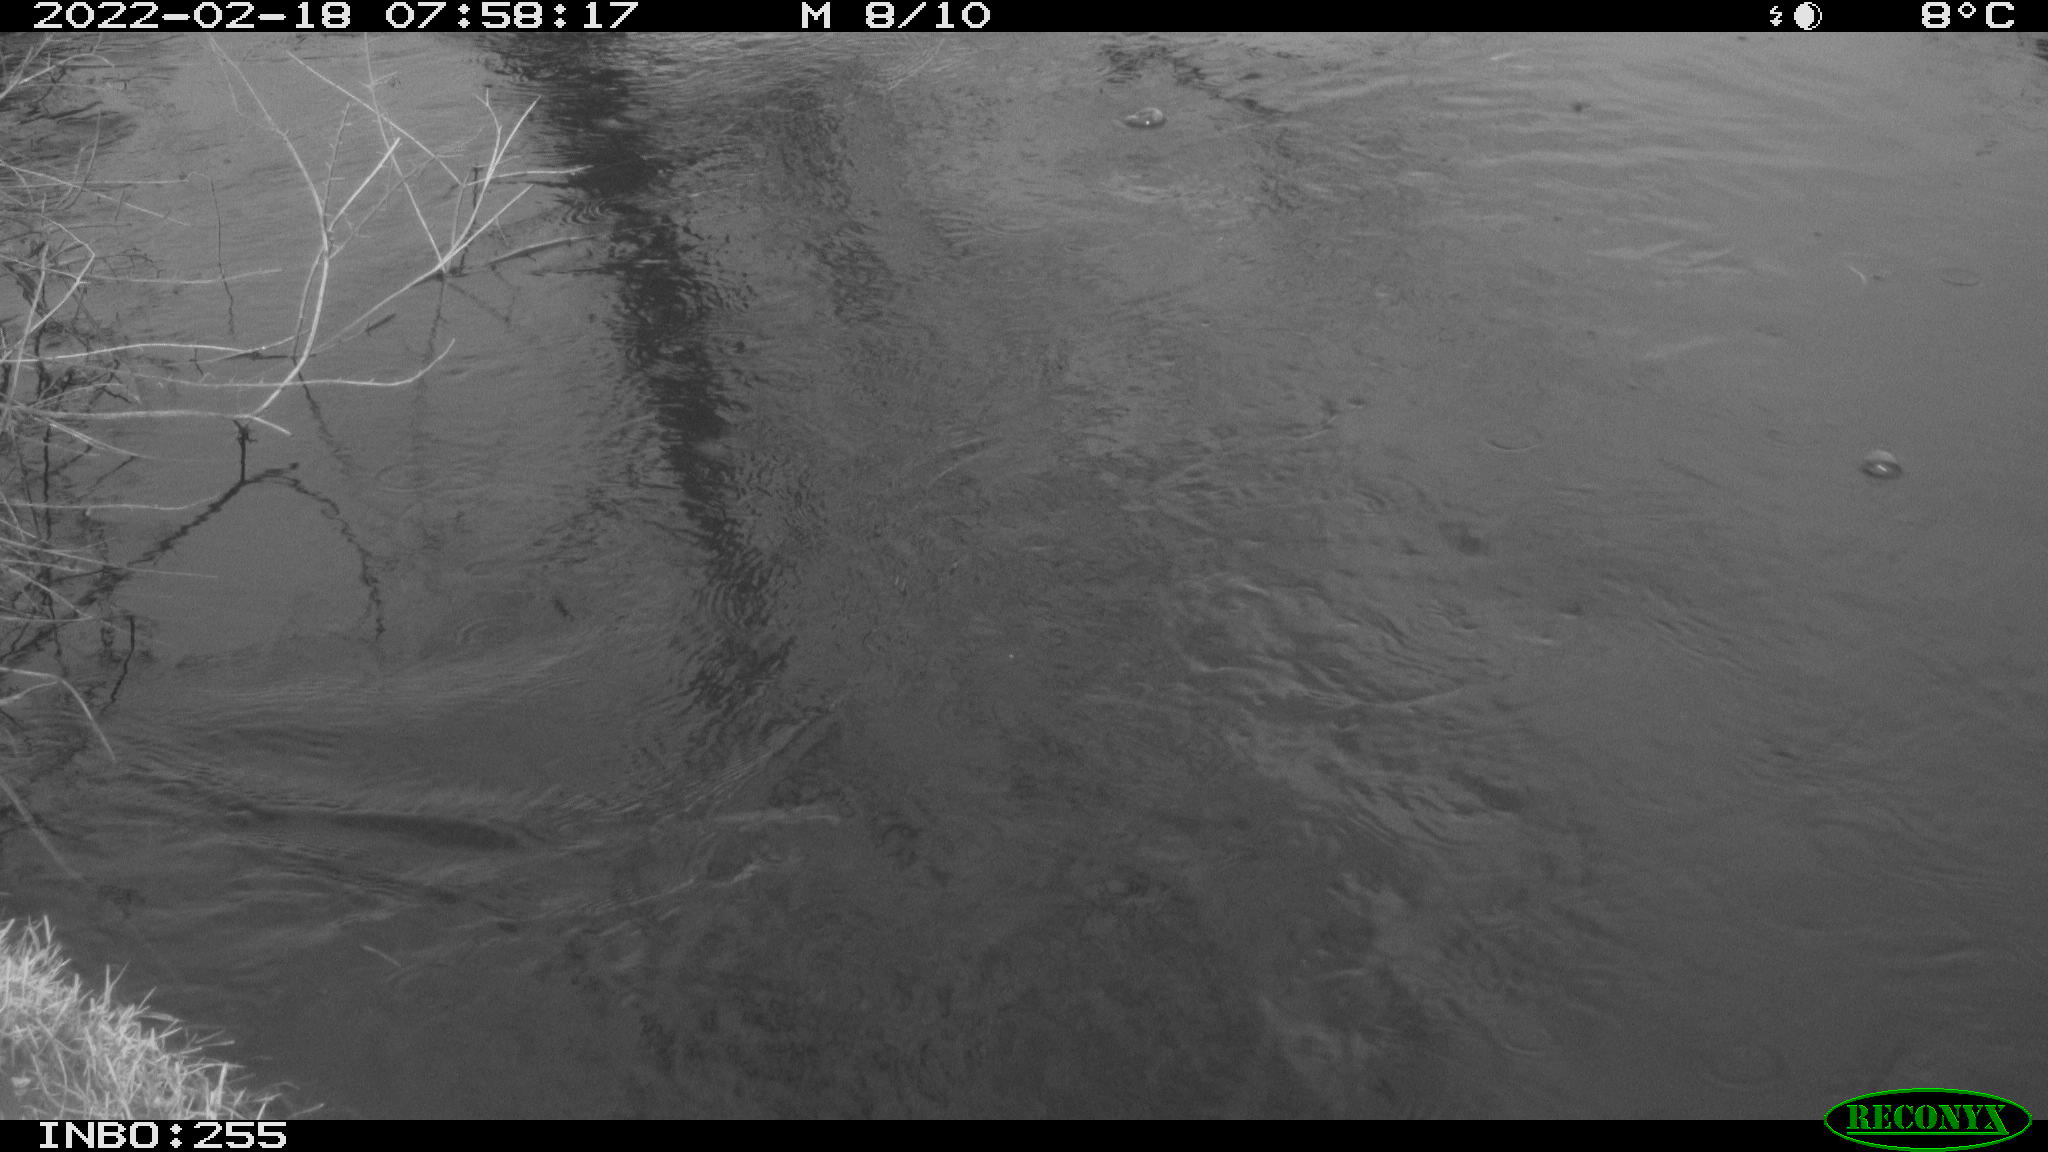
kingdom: Animalia
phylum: Chordata
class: Aves
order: Anseriformes
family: Anatidae
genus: Mareca
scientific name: Mareca strepera
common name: Gadwall
